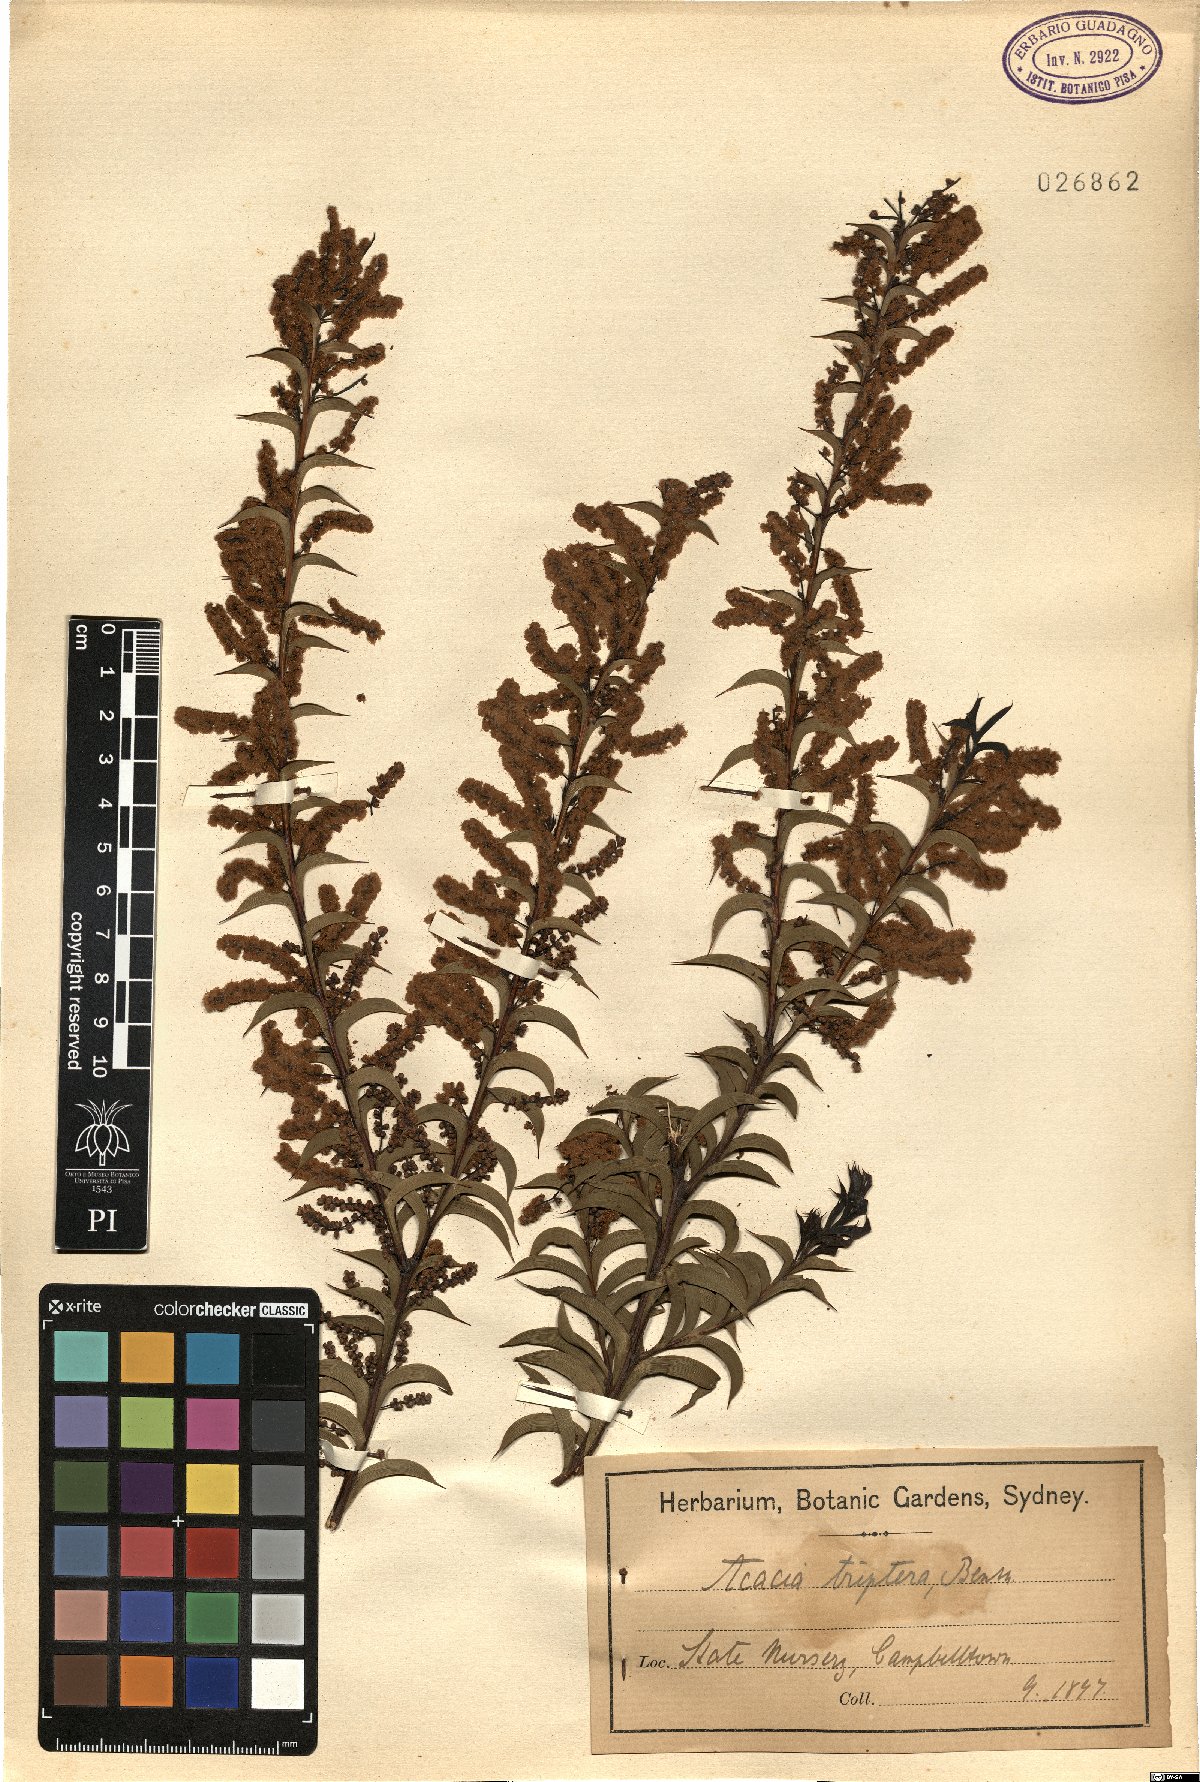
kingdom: Plantae
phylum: Tracheophyta
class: Magnoliopsida
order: Fabales
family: Fabaceae
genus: Acacia
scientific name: Acacia triptera
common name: Spur-wing wattle
